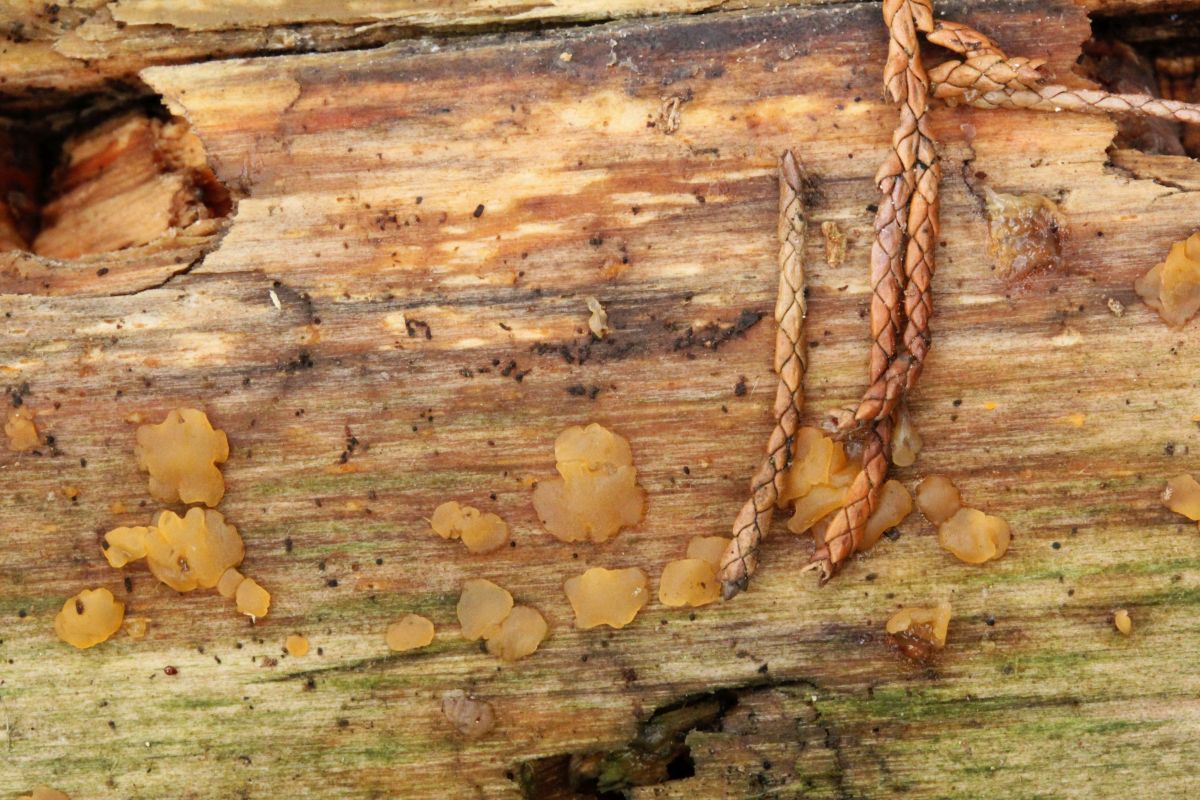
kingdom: Fungi
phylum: Basidiomycota
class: Dacrymycetes
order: Dacrymycetales
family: Dacrymycetaceae
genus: Dacrymyces
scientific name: Dacrymyces stillatus
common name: almindelig tåresvamp
